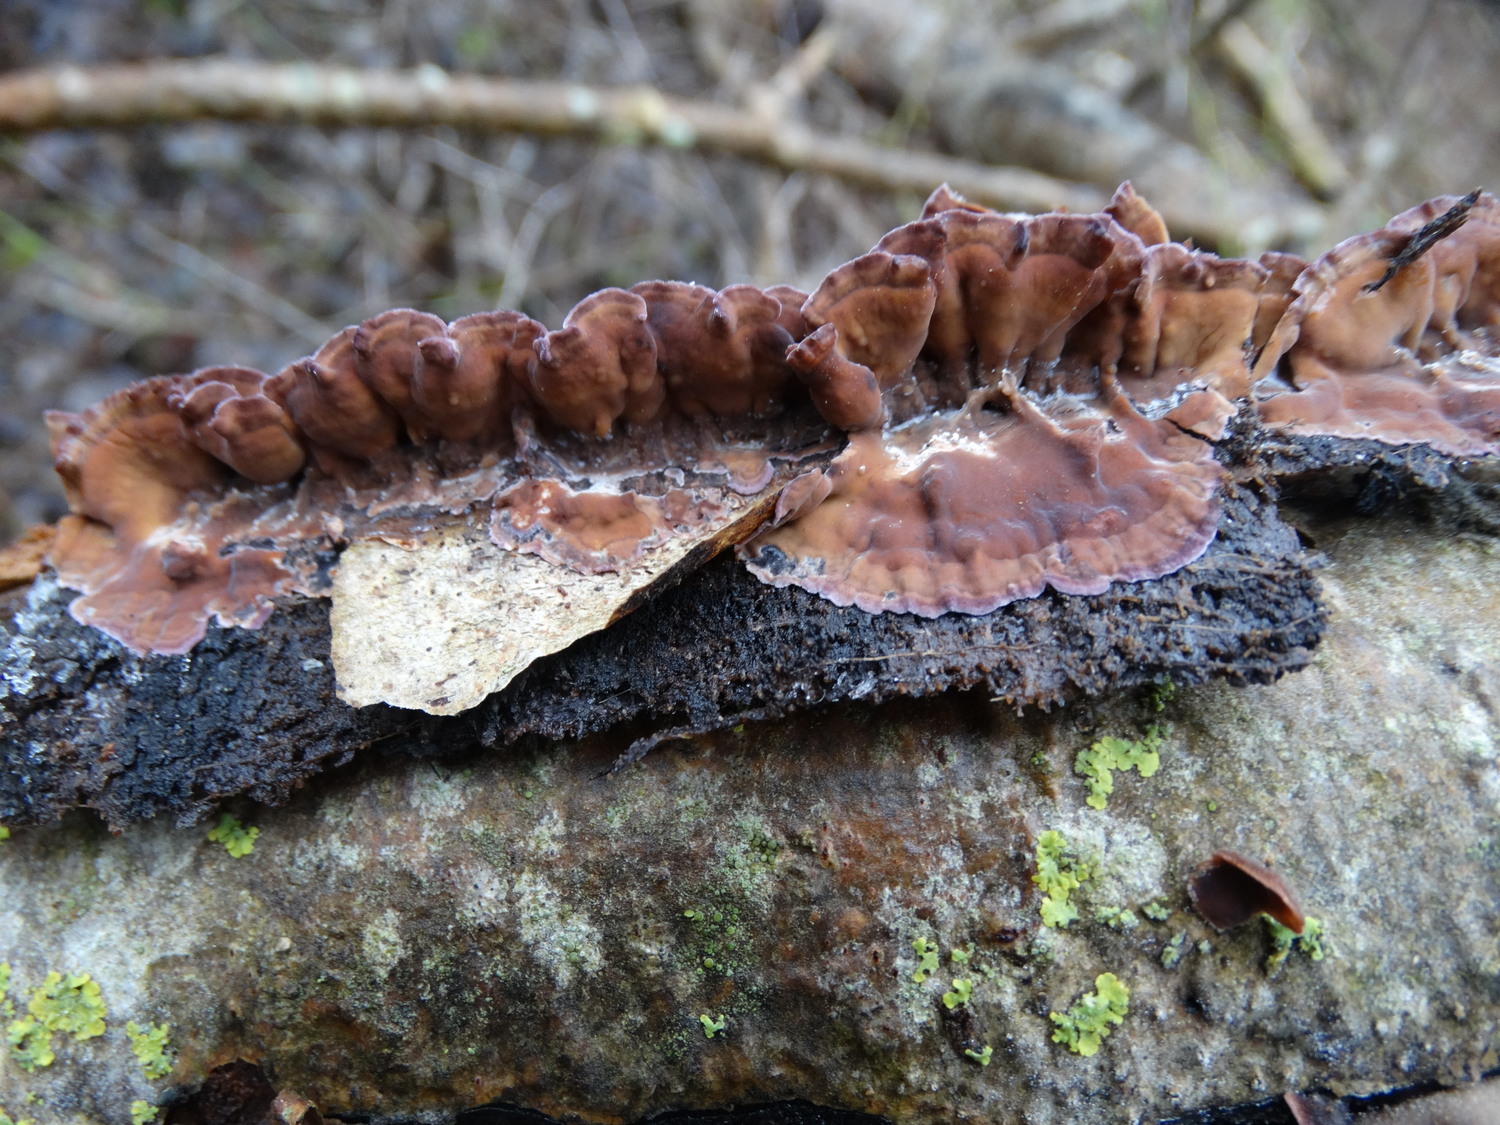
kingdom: Fungi
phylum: Basidiomycota
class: Agaricomycetes
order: Agaricales
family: Cyphellaceae
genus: Chondrostereum
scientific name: Chondrostereum purpureum
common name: purpurlædersvamp
